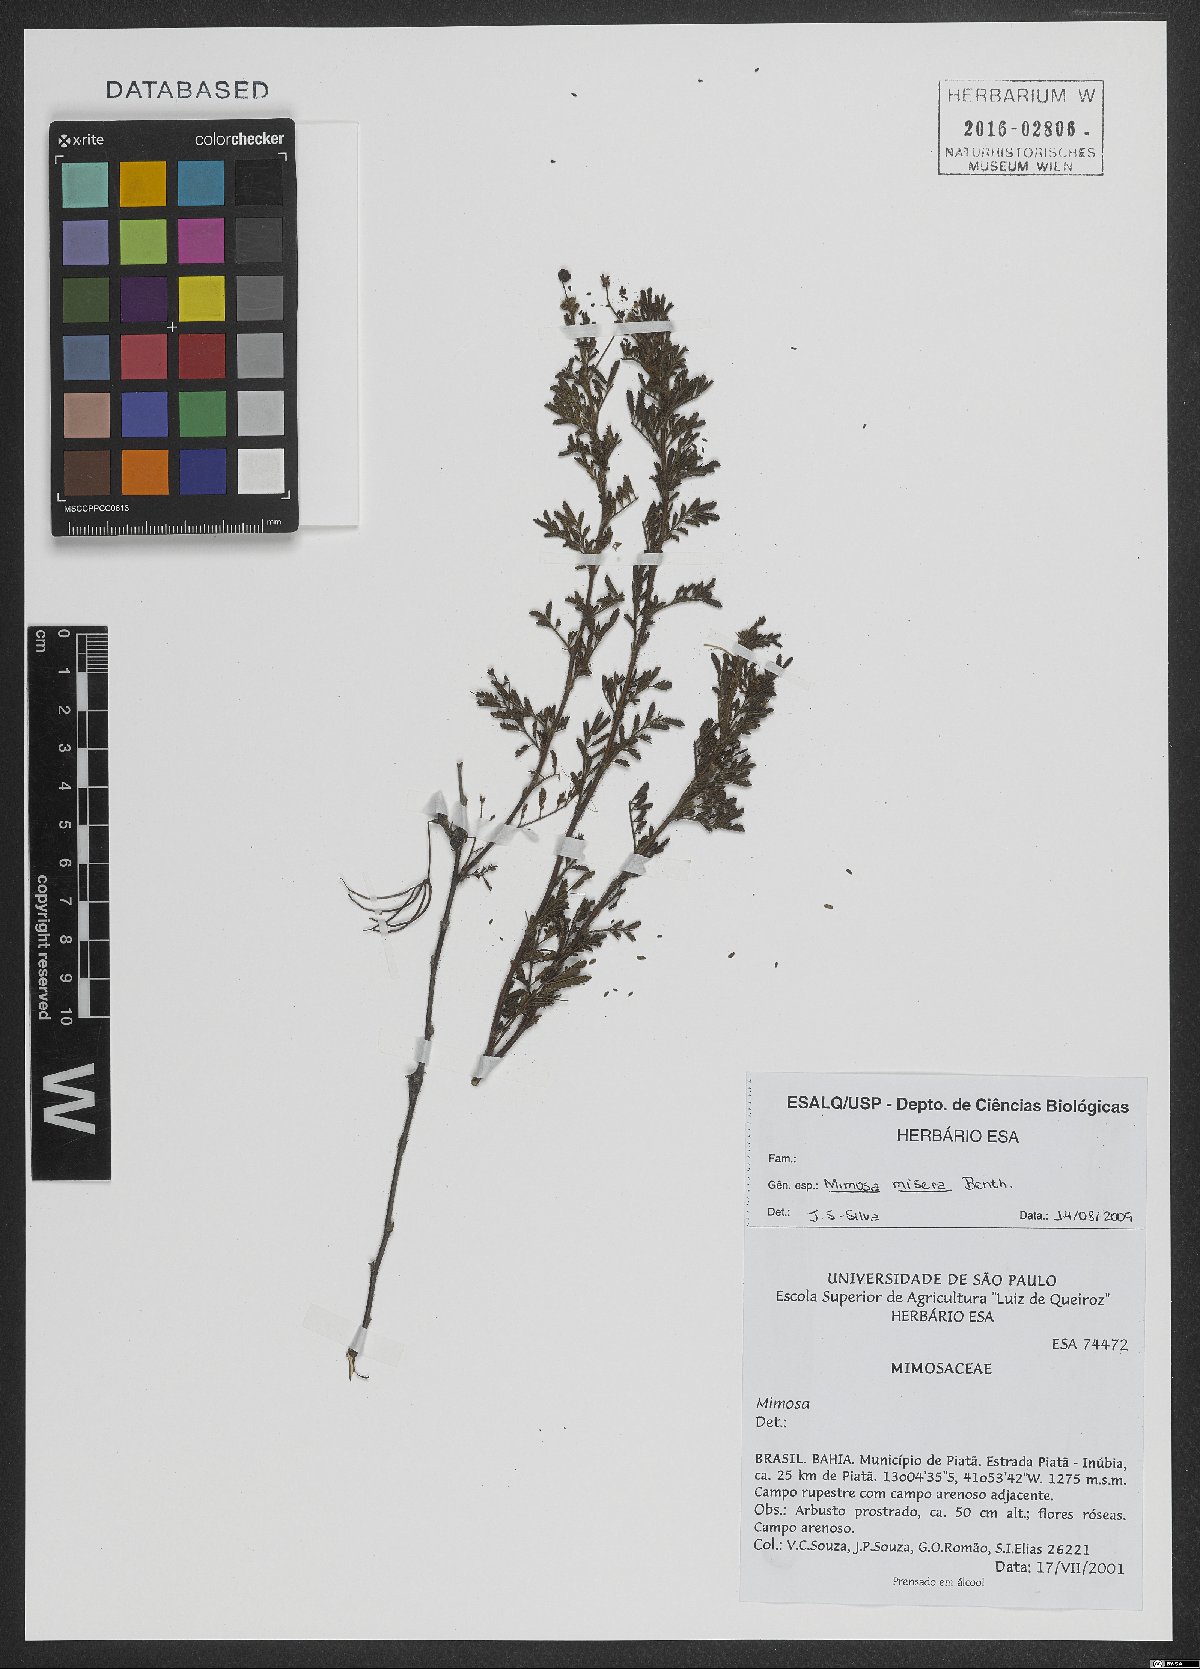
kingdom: Plantae
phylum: Tracheophyta
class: Magnoliopsida
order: Fabales
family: Fabaceae
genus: Mimosa
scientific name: Mimosa misera
